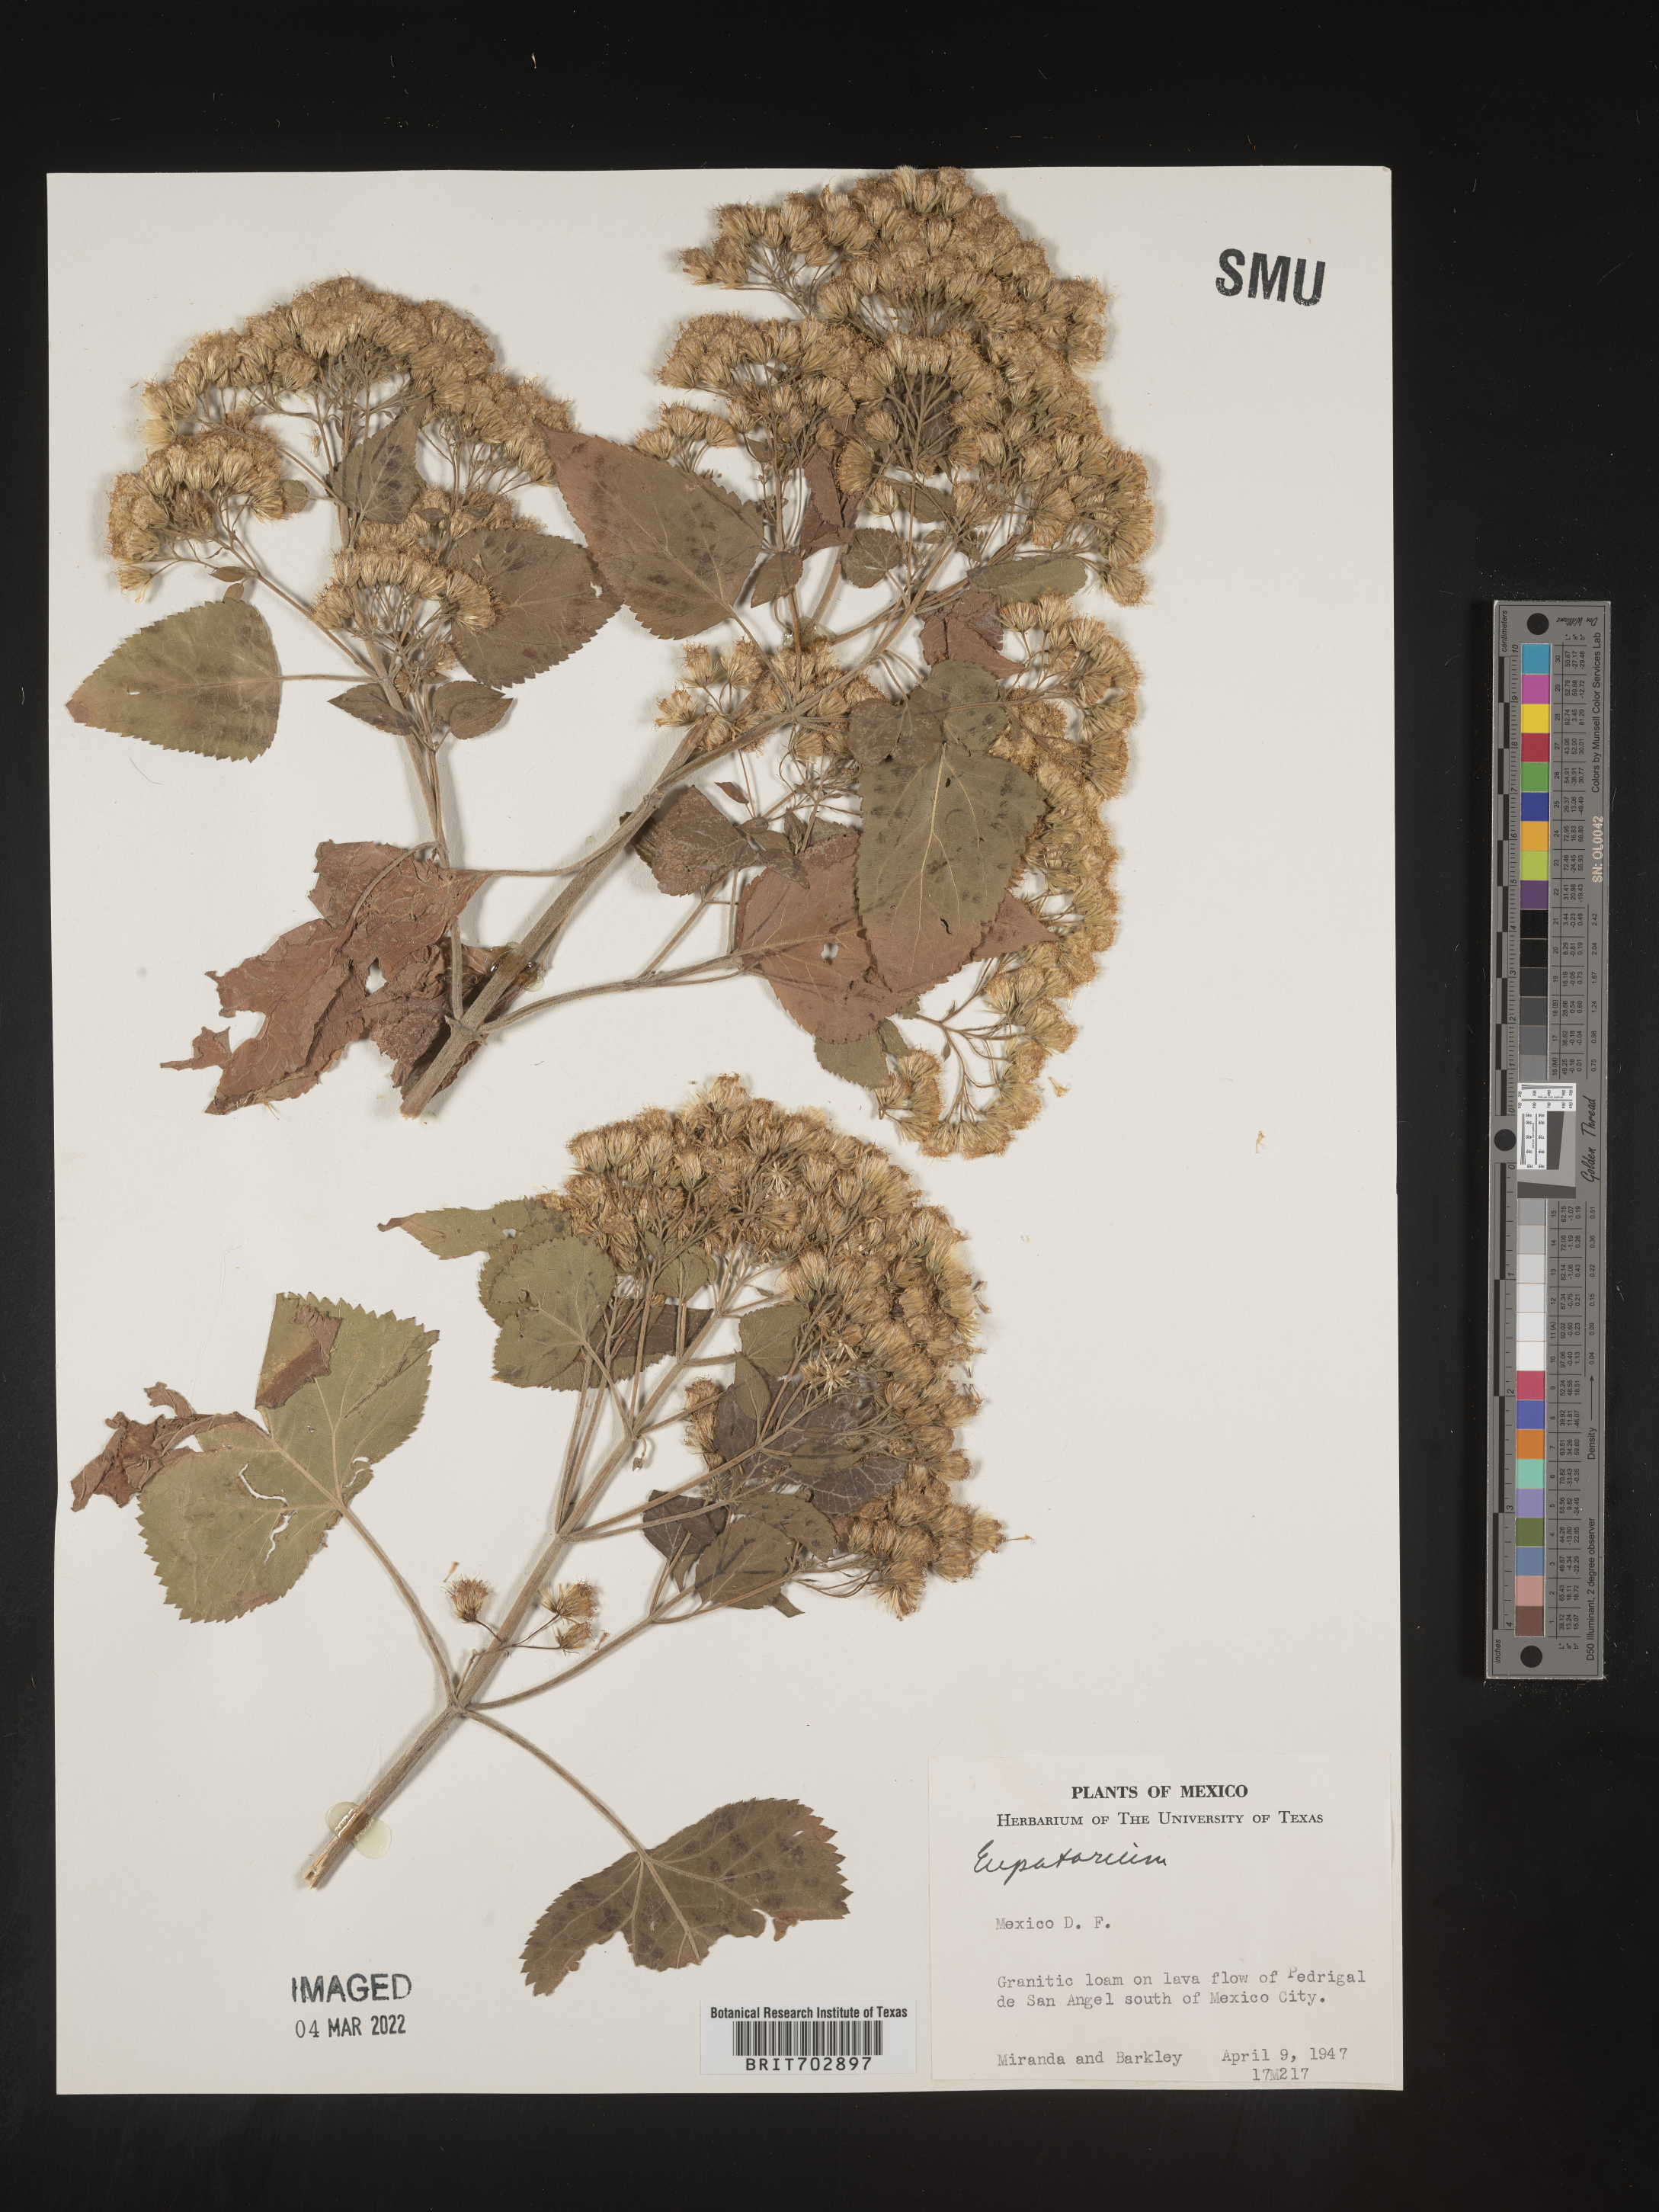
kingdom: Plantae
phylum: Tracheophyta
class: Magnoliopsida
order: Asterales
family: Asteraceae
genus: Eupatorium
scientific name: Eupatorium
